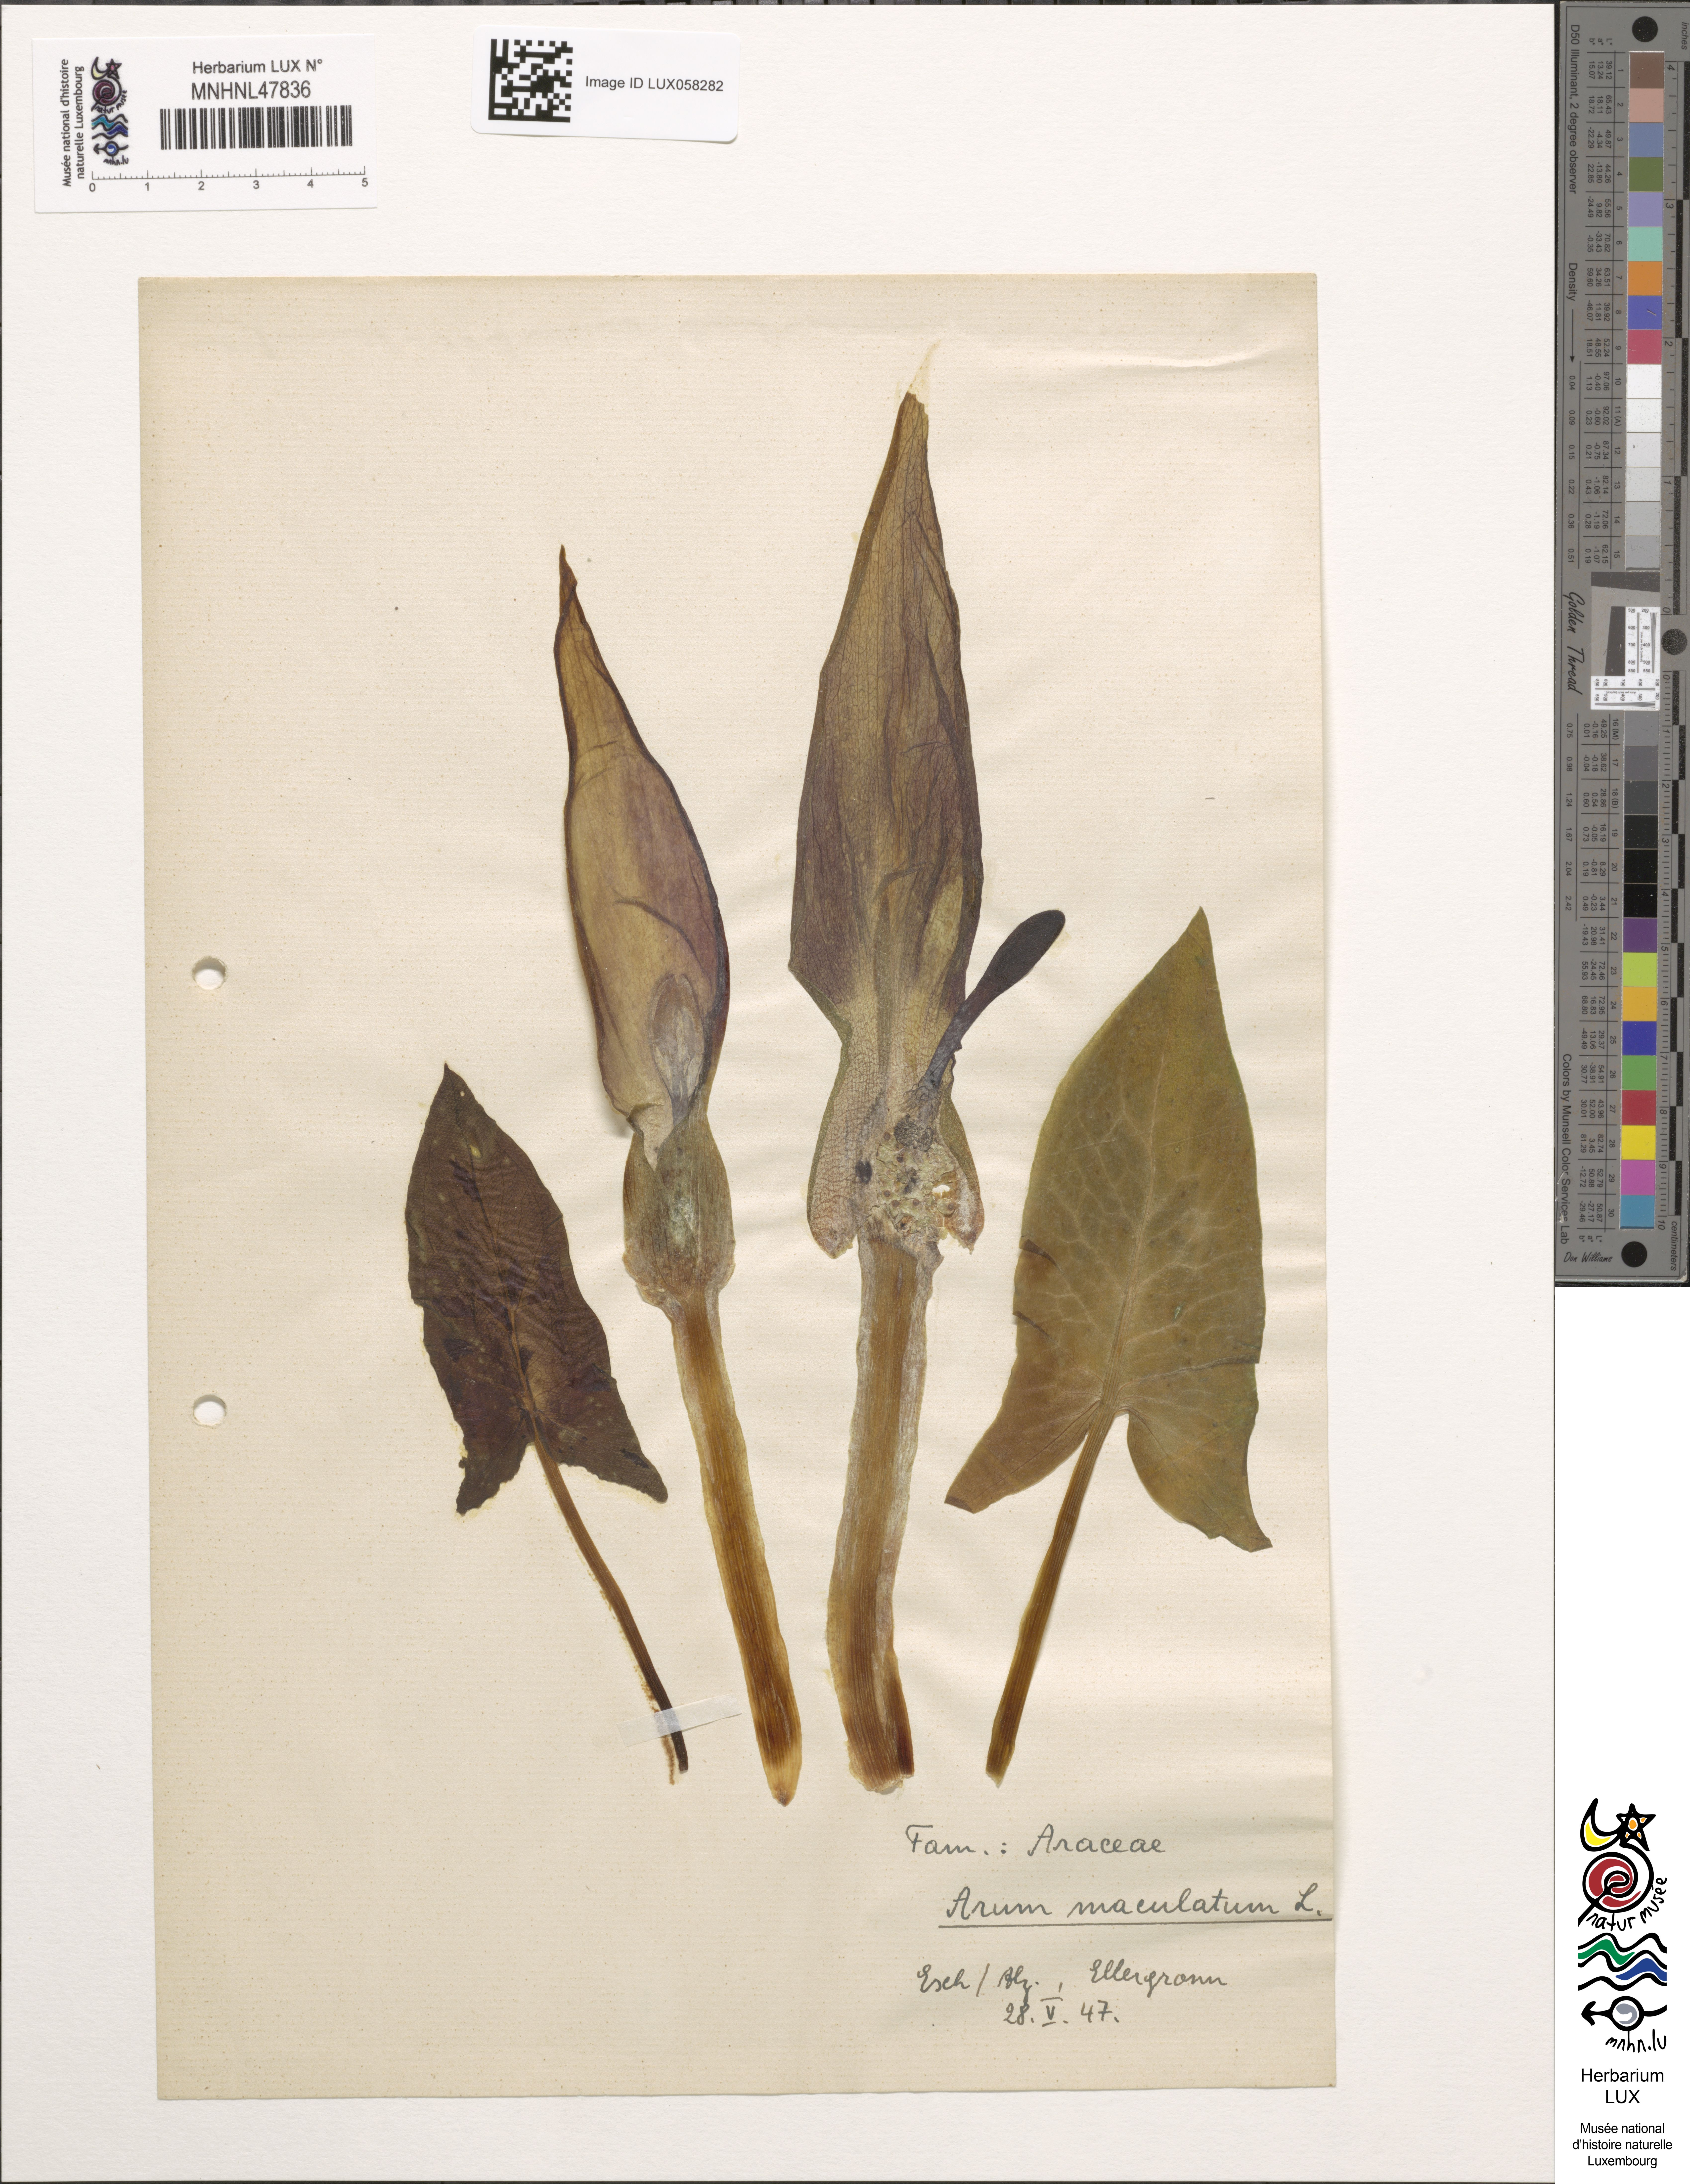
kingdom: Plantae
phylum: Tracheophyta
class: Liliopsida
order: Alismatales
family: Araceae
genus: Arum
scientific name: Arum maculatum
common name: Lords-and-ladies
